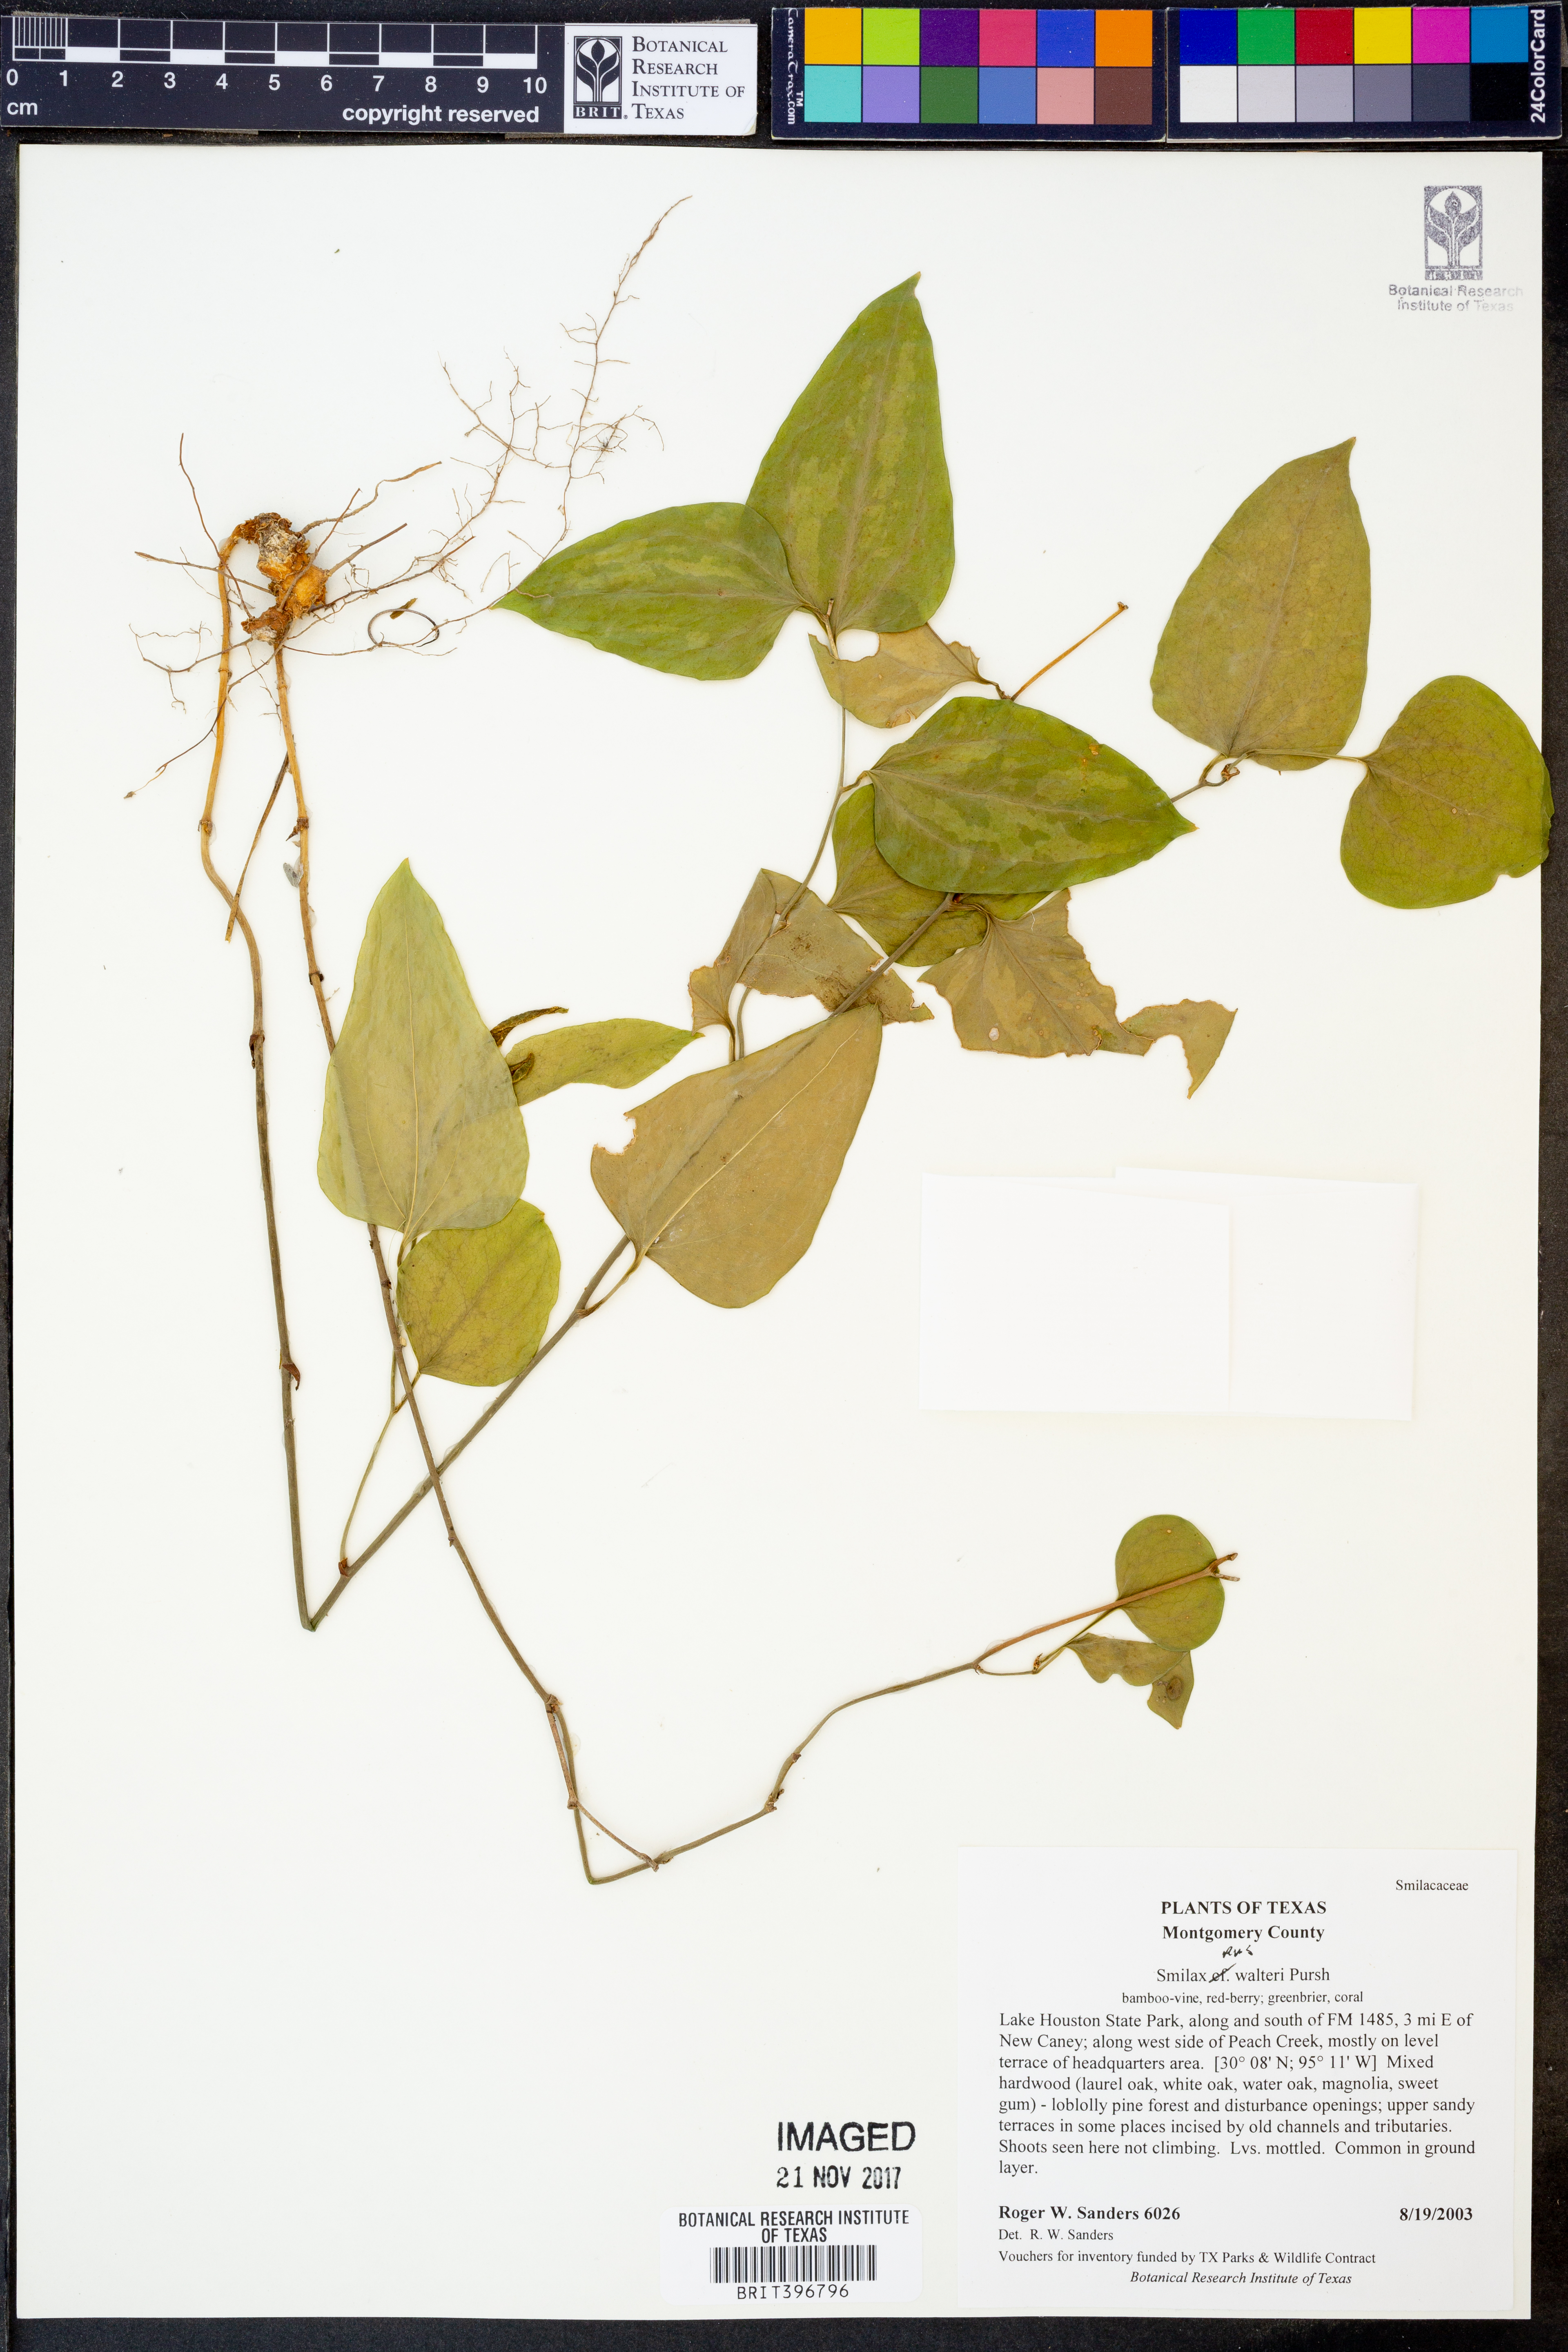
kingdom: Plantae
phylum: Tracheophyta
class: Liliopsida
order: Liliales
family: Smilacaceae
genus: Smilax
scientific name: Smilax walteri
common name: Coral greenbrier
